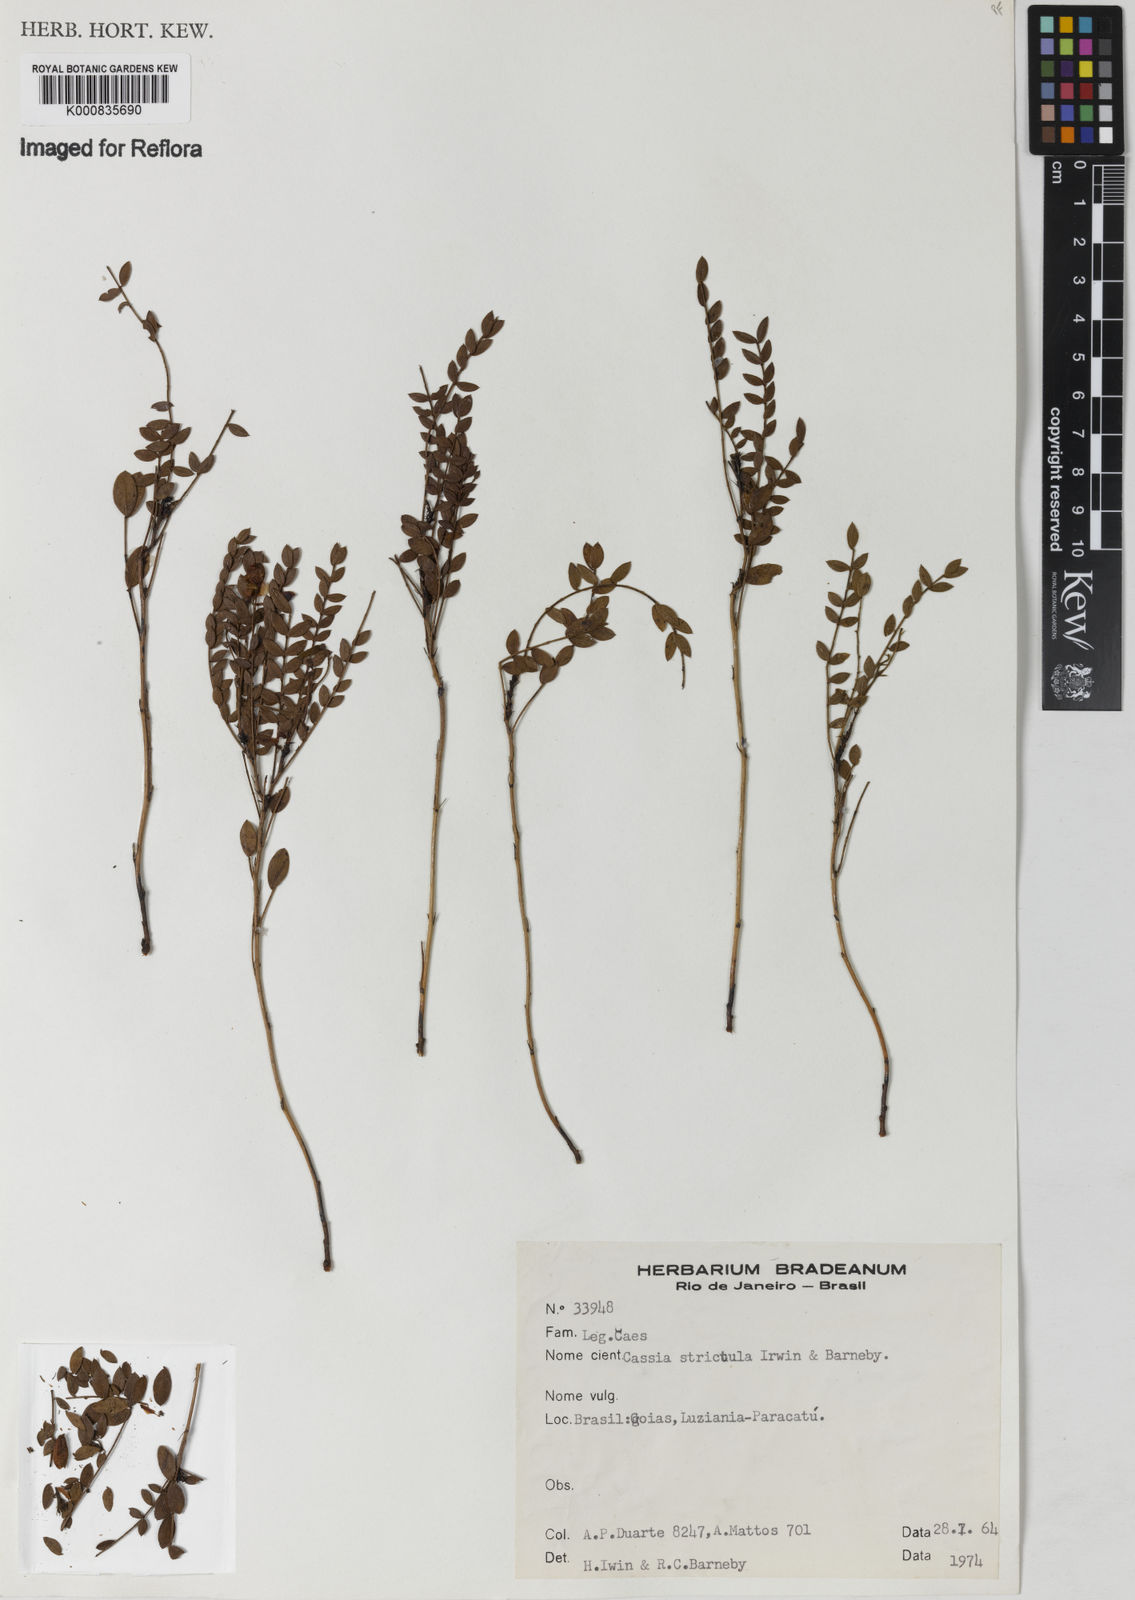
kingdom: Plantae
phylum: Tracheophyta
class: Magnoliopsida
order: Fabales
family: Fabaceae
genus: Chamaecrista
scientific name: Chamaecrista strictula
